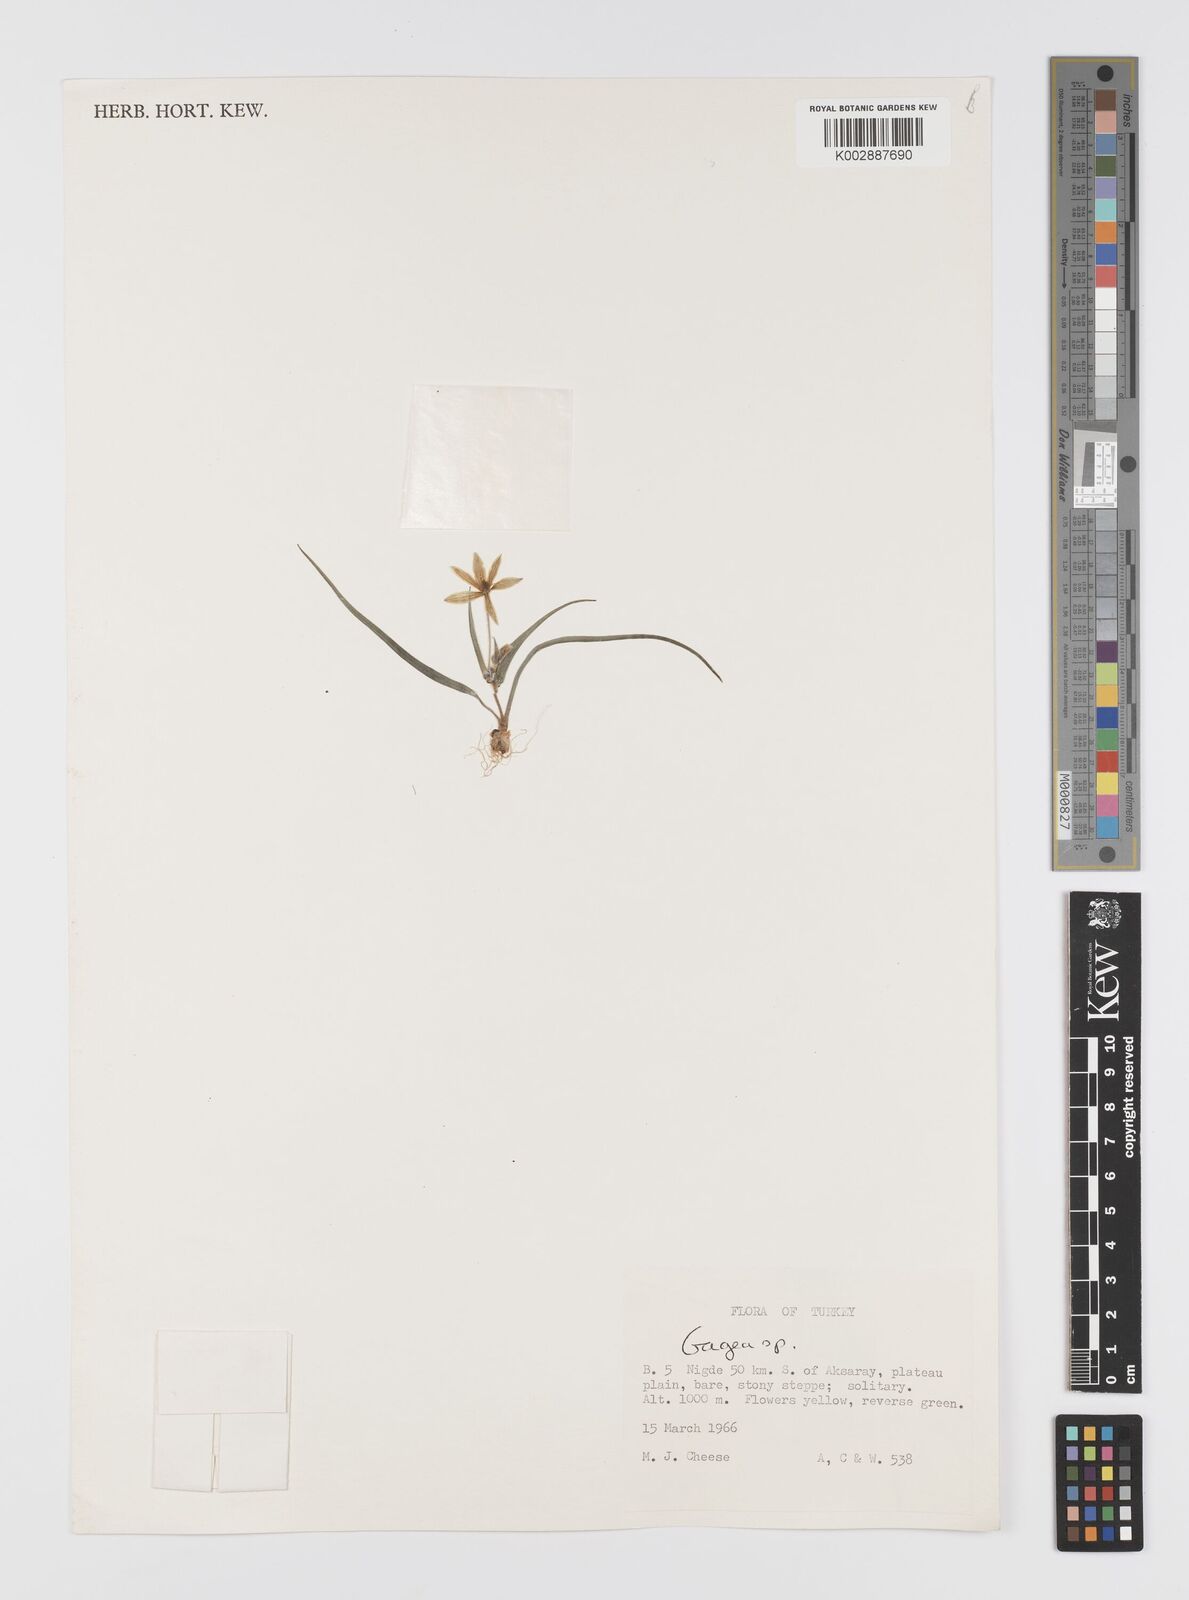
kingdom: Plantae
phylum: Tracheophyta
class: Liliopsida
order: Liliales
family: Liliaceae
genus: Gagea
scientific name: Gagea dubia
